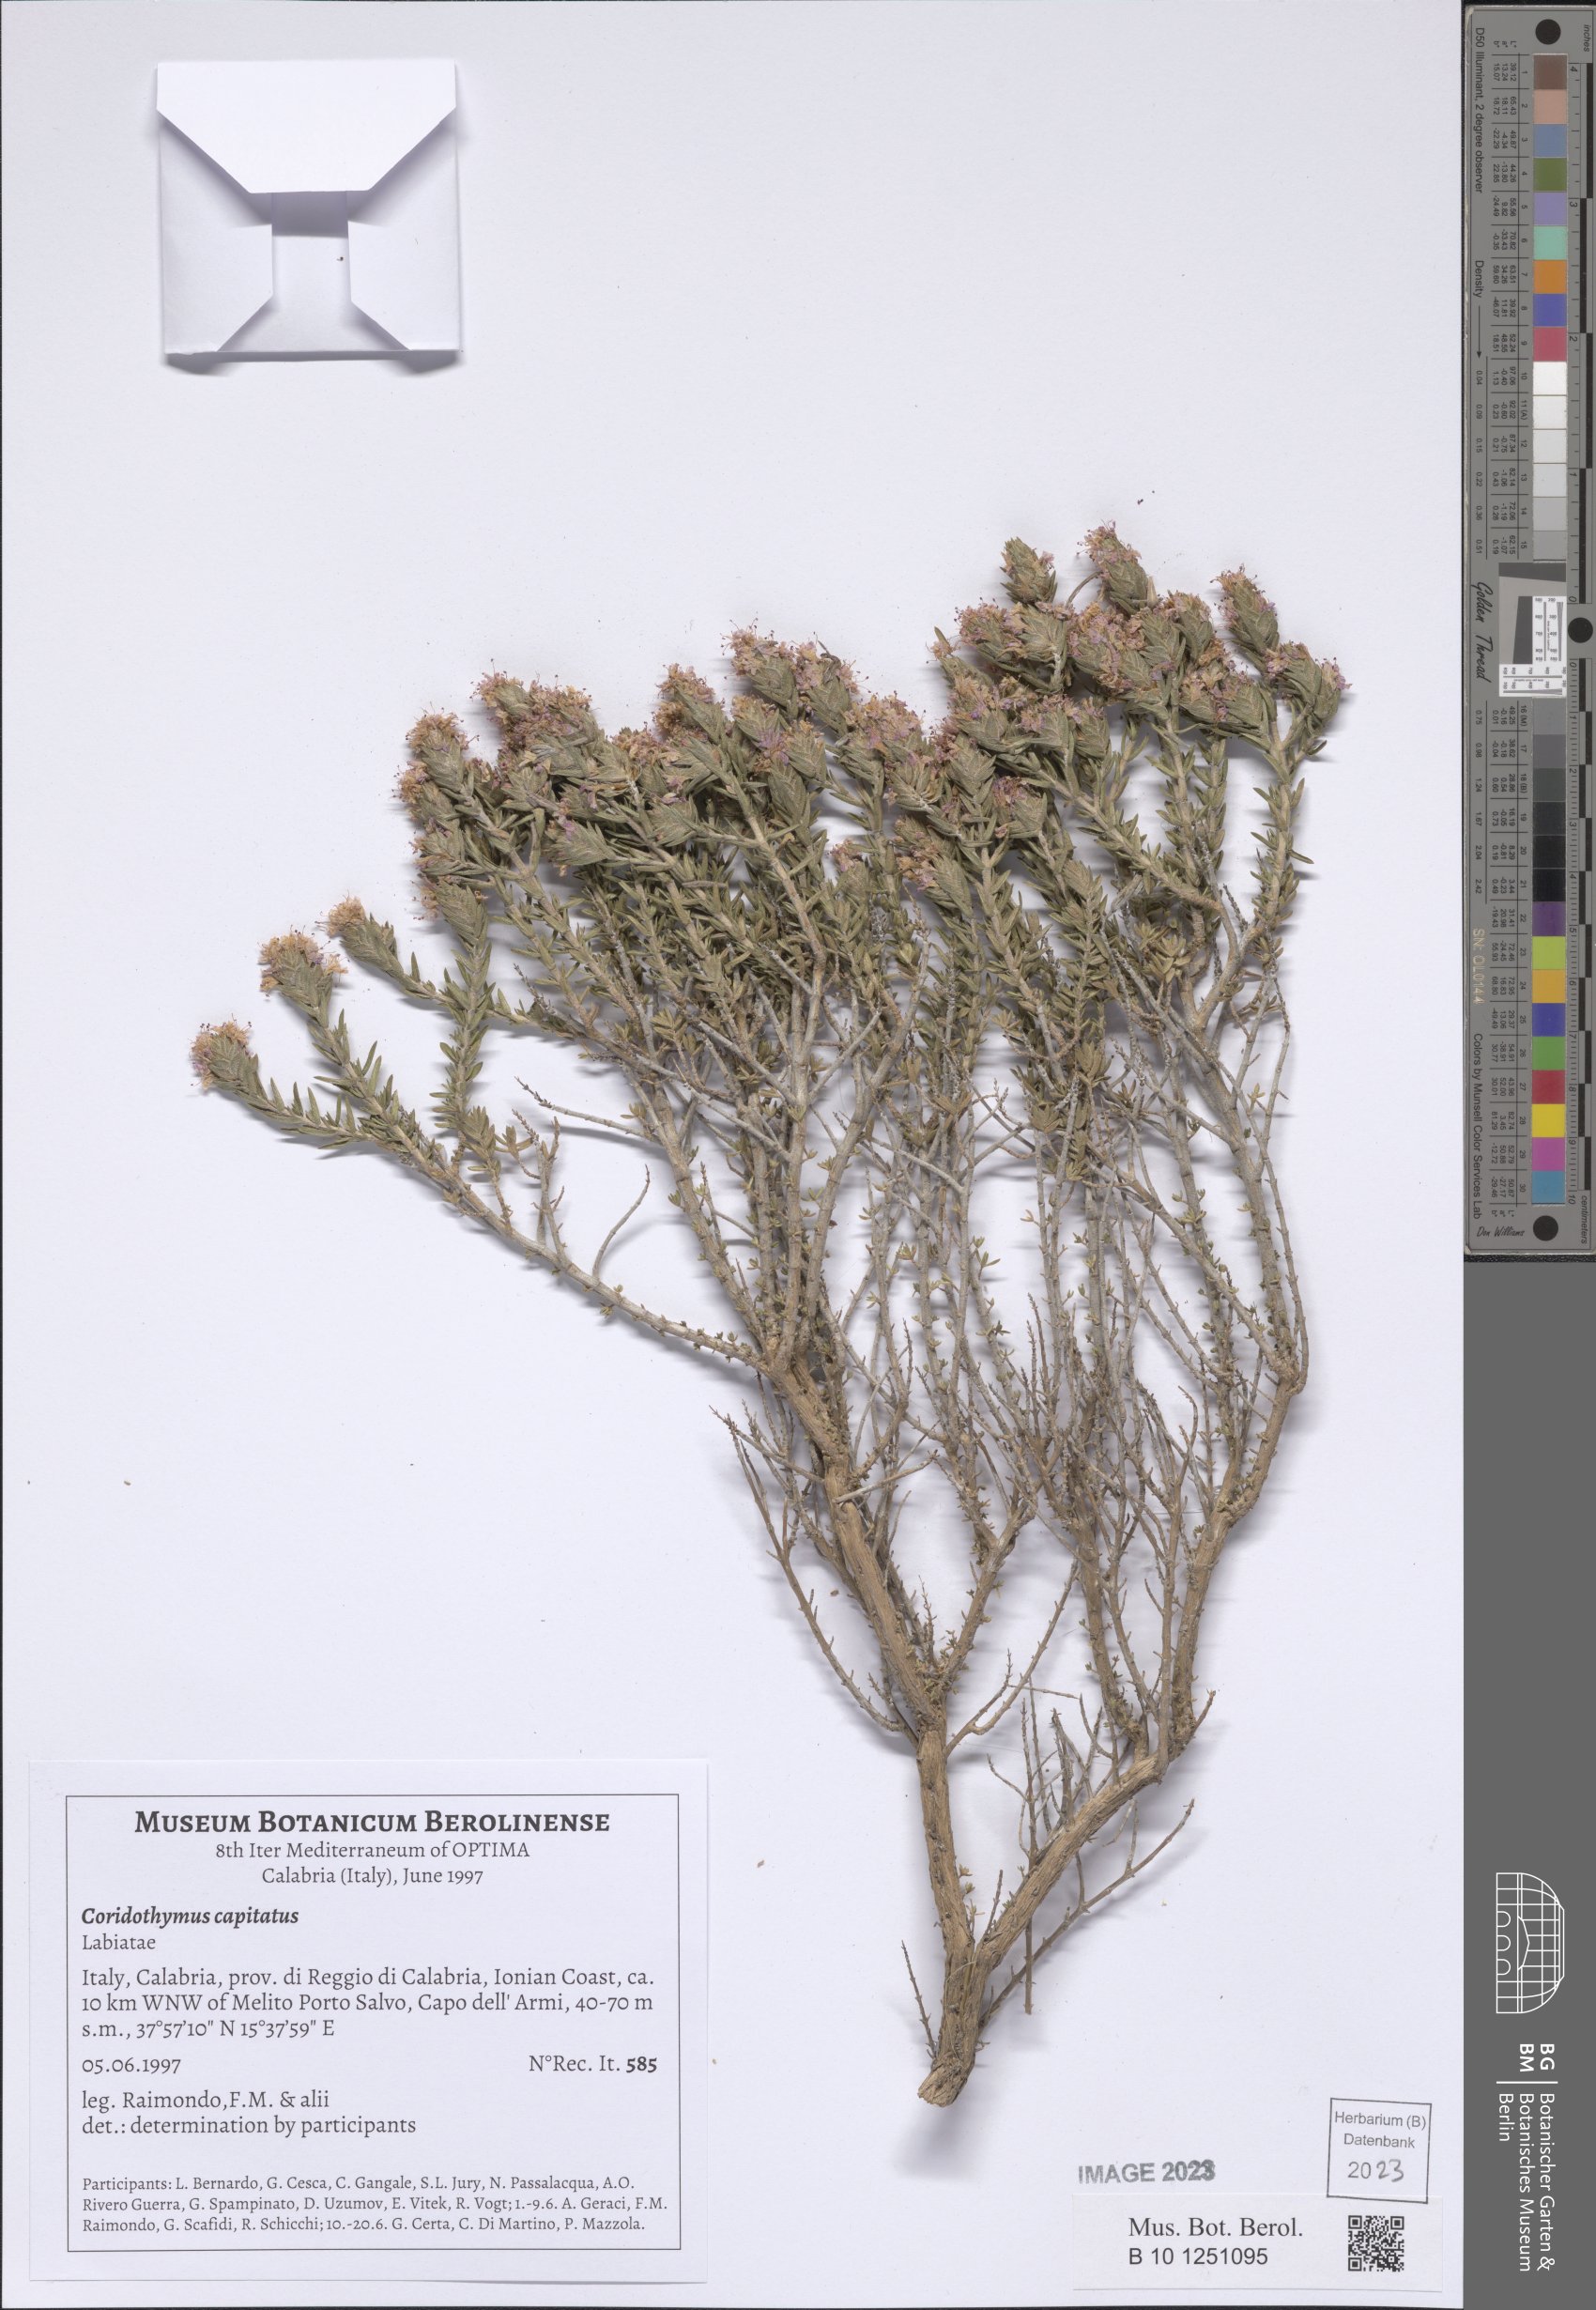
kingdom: Plantae
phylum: Tracheophyta
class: Magnoliopsida
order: Lamiales
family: Lamiaceae
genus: Thymbra
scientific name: Thymbra capitata
